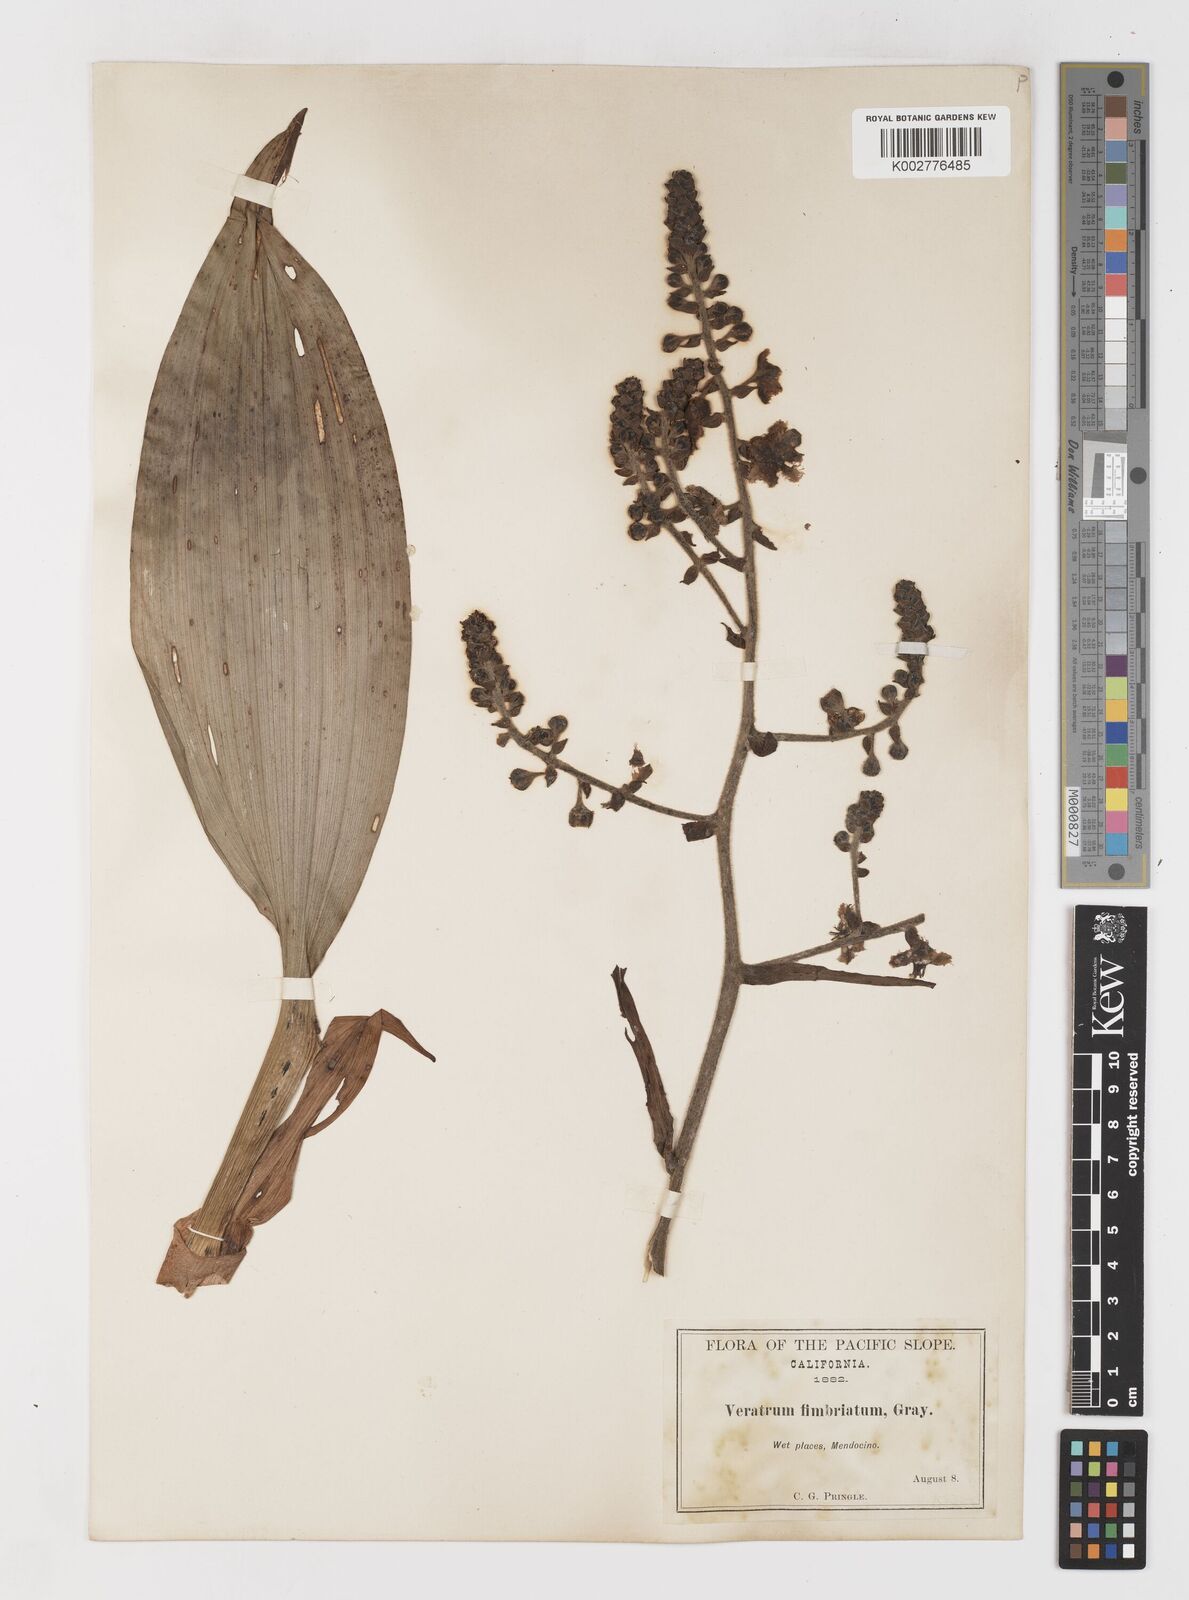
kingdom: Plantae
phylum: Tracheophyta
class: Liliopsida
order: Liliales
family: Melanthiaceae
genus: Veratrum
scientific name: Veratrum fimbriatum
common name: Fringe false hellobore
